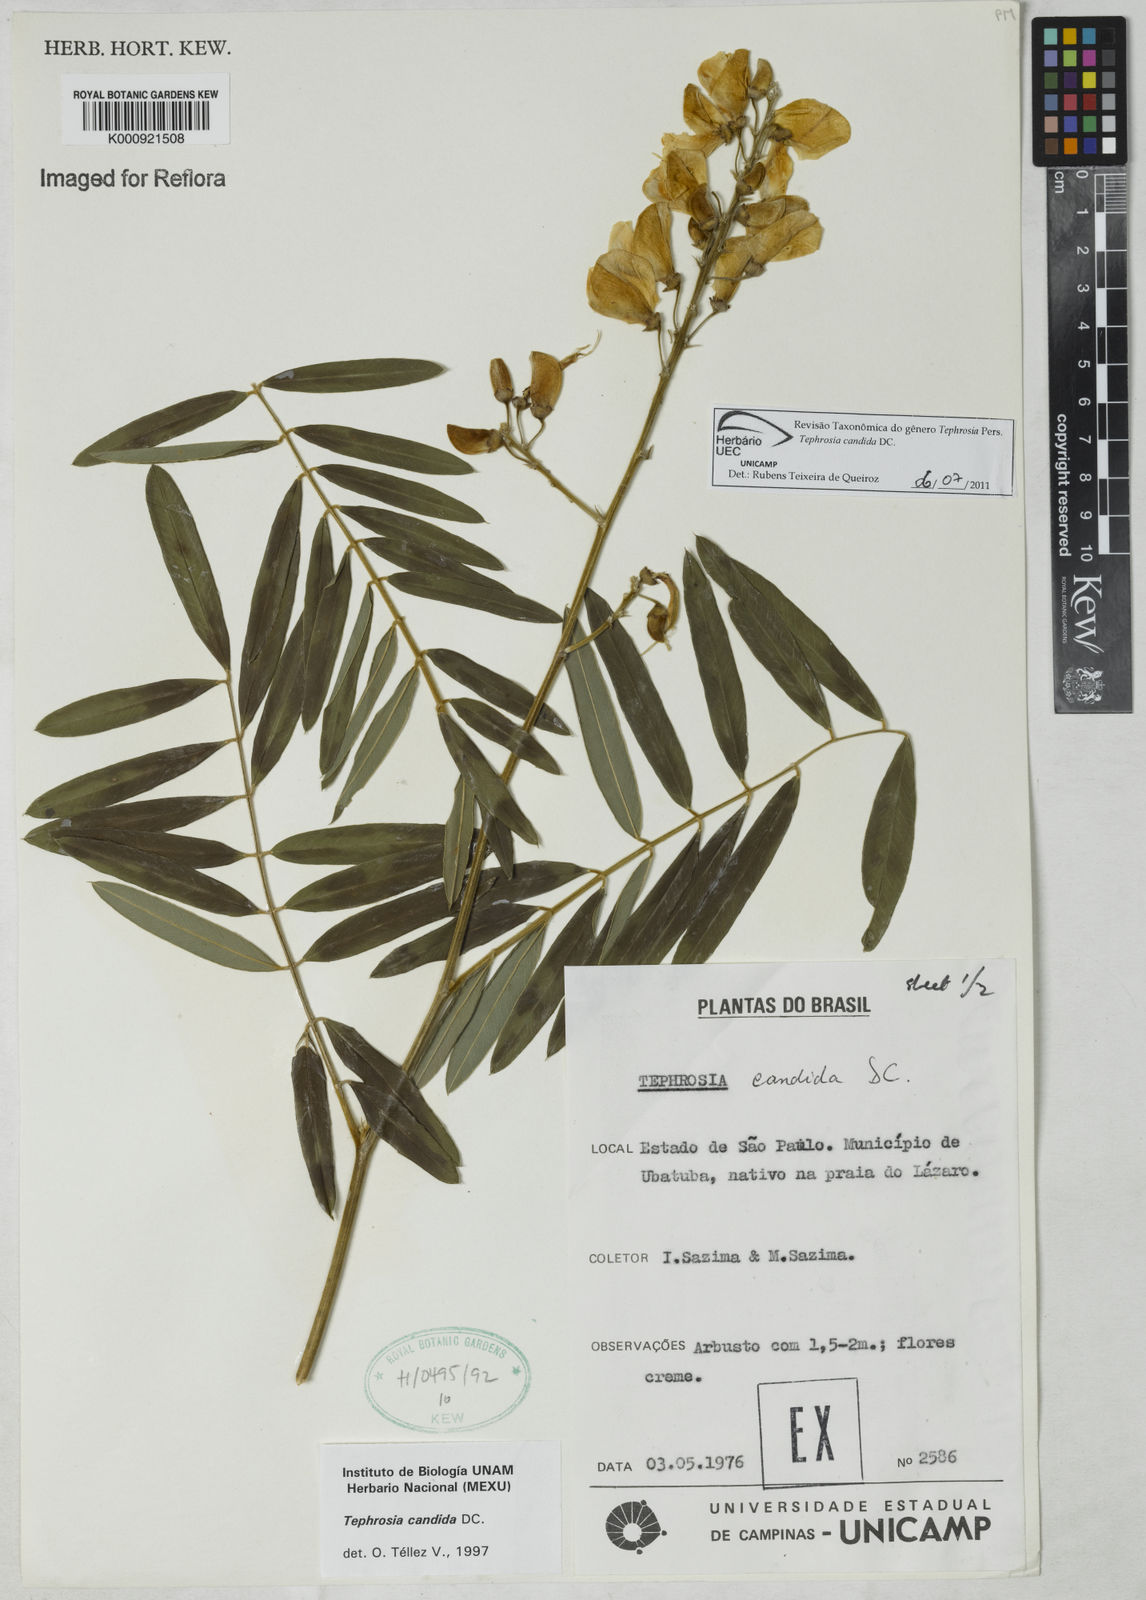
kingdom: Plantae
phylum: Tracheophyta
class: Magnoliopsida
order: Fabales
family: Fabaceae
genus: Tephrosia
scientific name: Tephrosia candida
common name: White tephrosia
